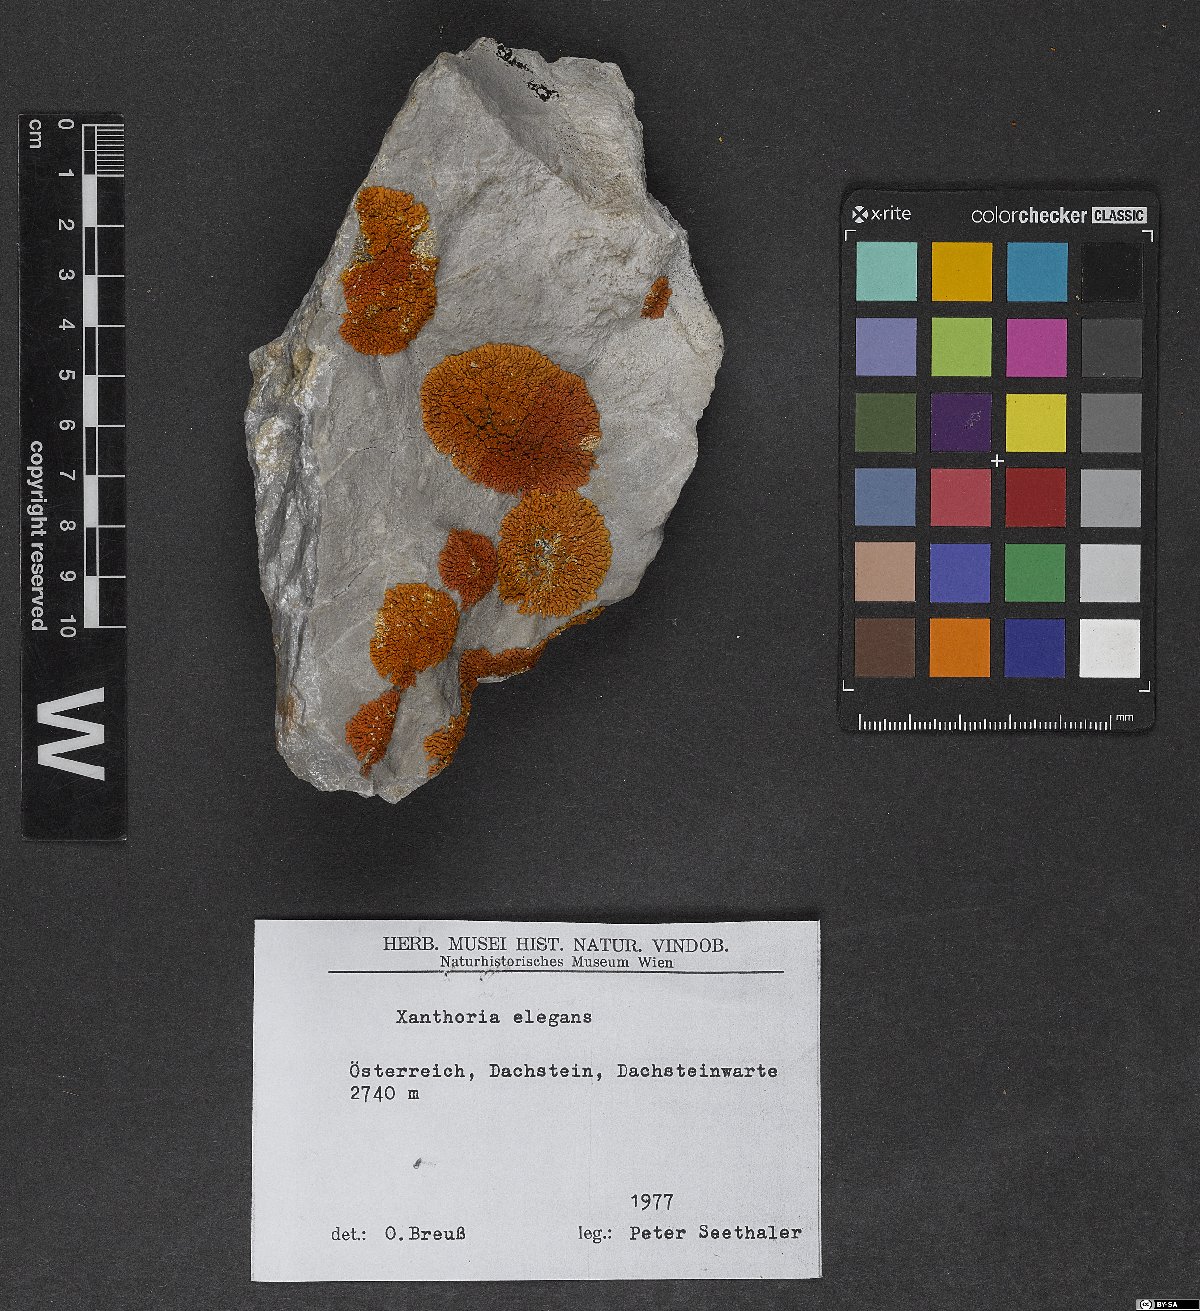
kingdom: Fungi
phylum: Ascomycota
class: Lecanoromycetes
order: Teloschistales
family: Teloschistaceae
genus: Xanthoria
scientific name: Xanthoria elegans
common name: Elegant sunburst lichen
